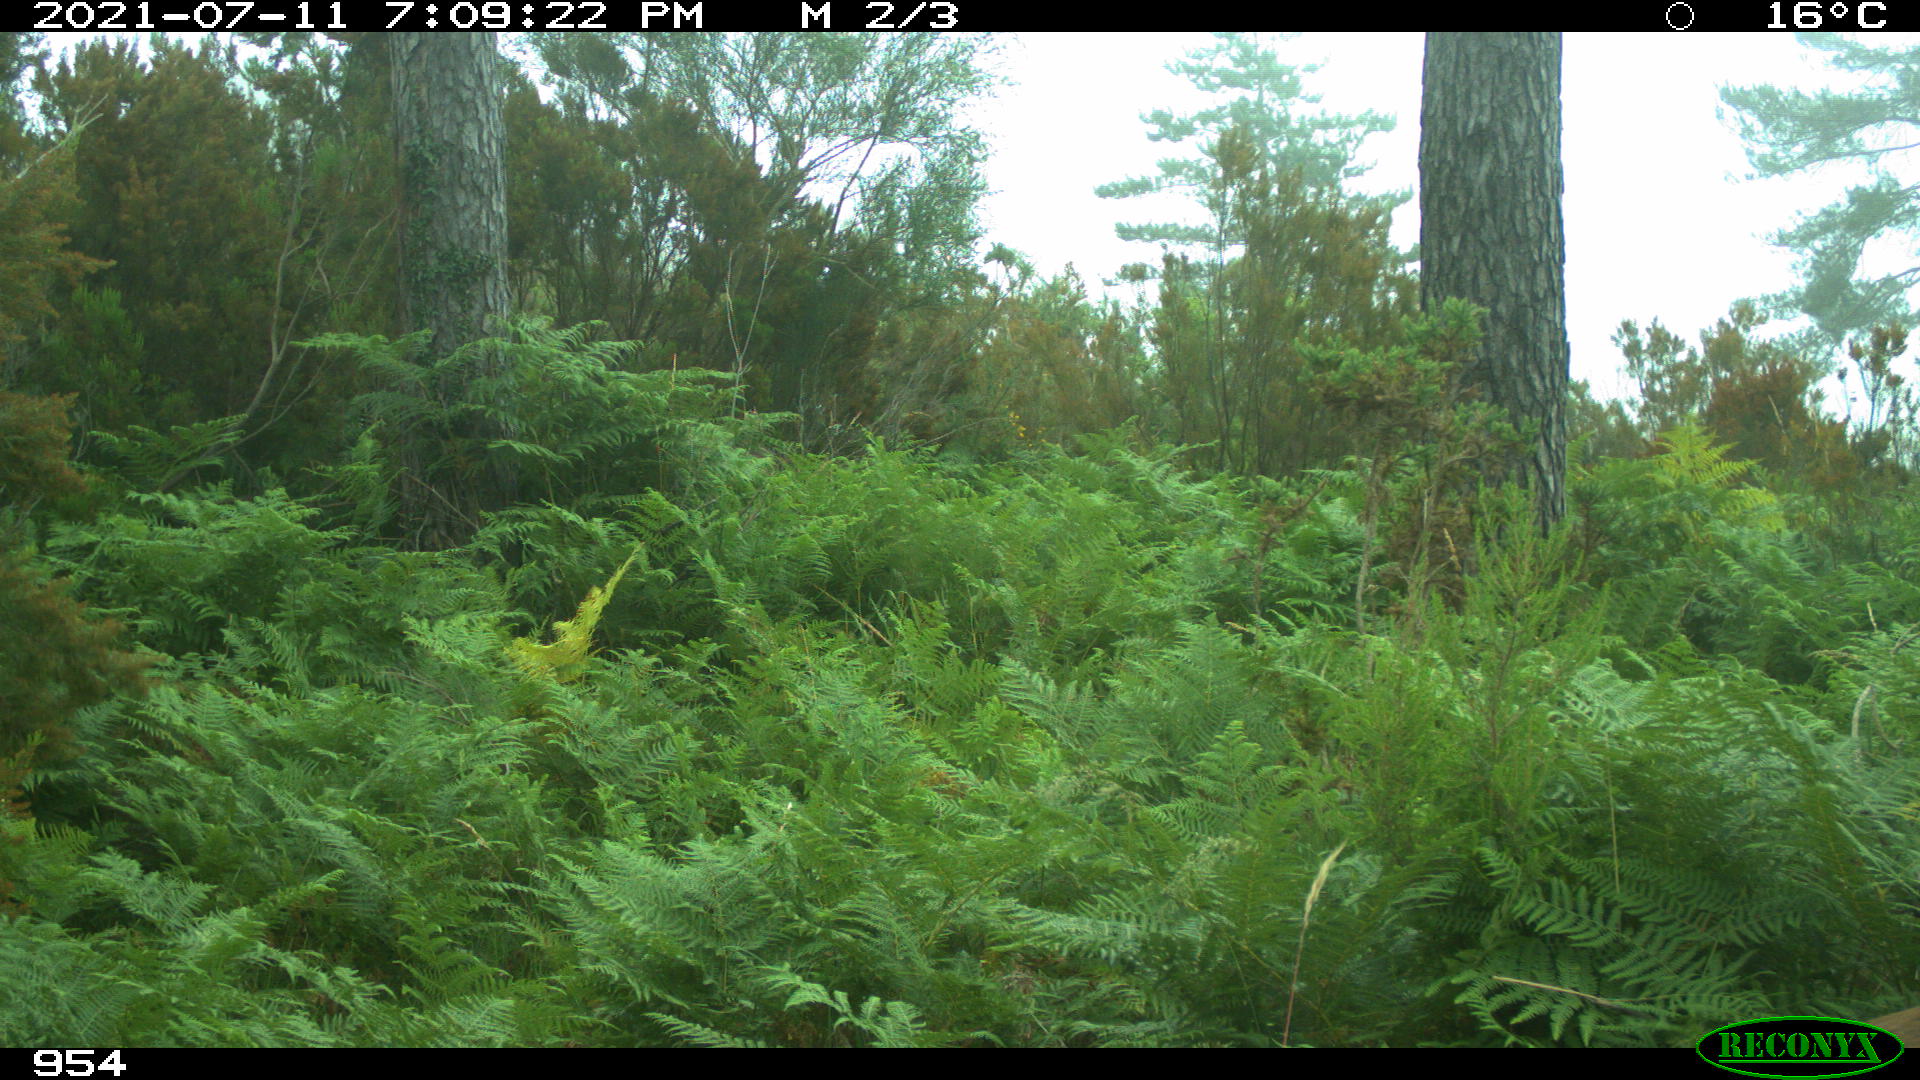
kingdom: Animalia
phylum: Chordata
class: Mammalia
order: Artiodactyla
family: Cervidae
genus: Capreolus
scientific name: Capreolus capreolus
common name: Western roe deer
